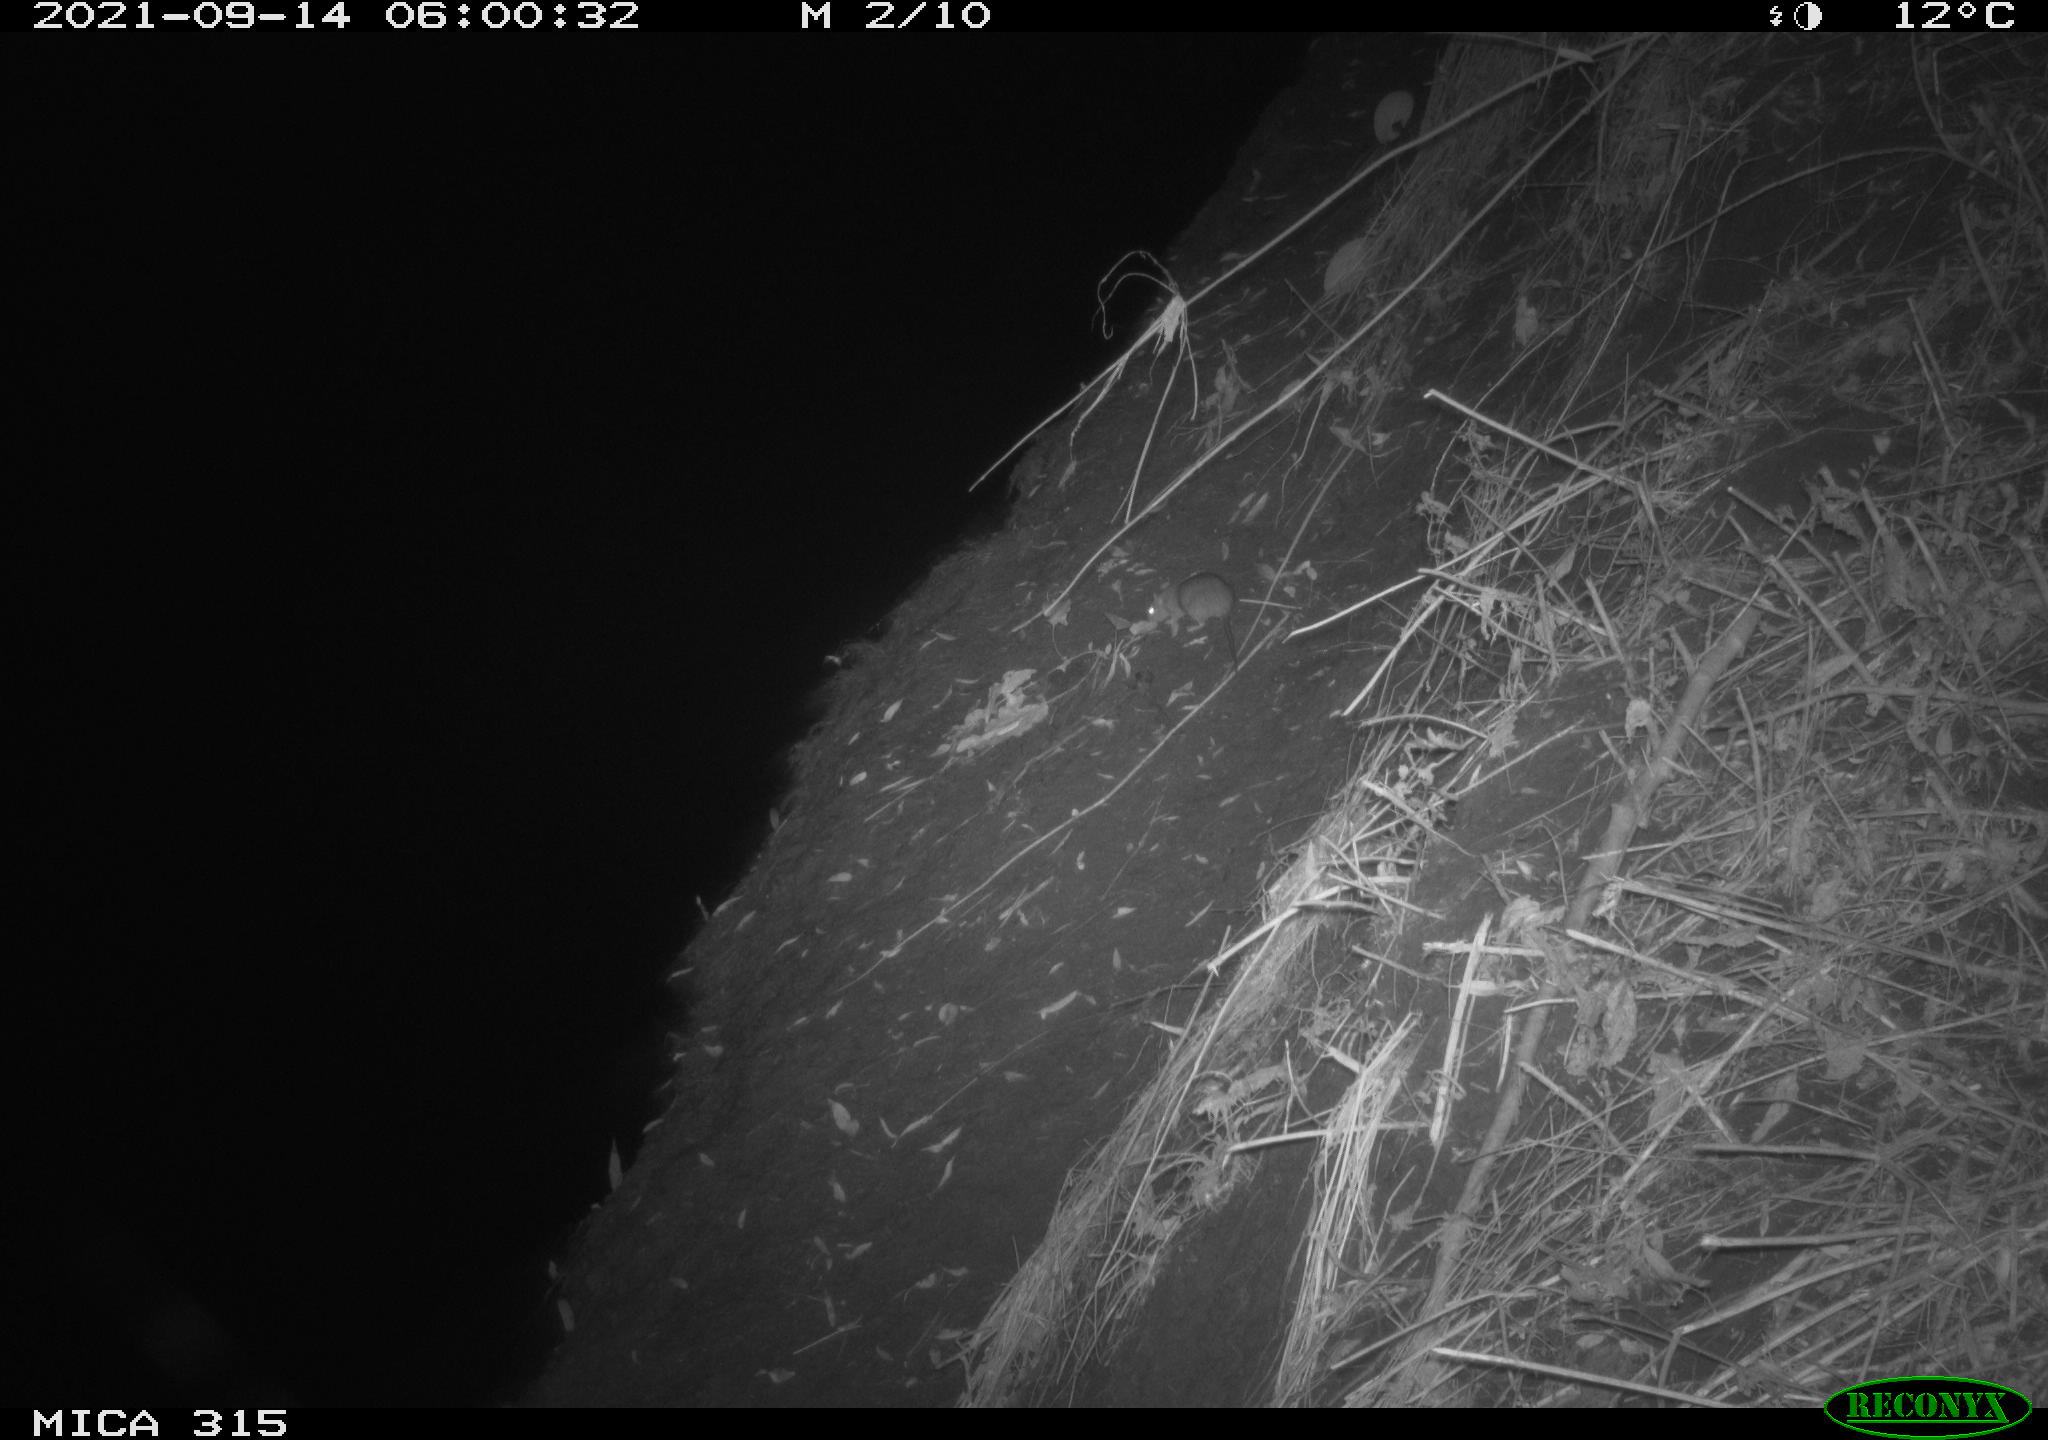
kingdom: Animalia
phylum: Chordata
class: Mammalia
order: Rodentia
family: Muridae
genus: Rattus
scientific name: Rattus norvegicus
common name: Brown rat
